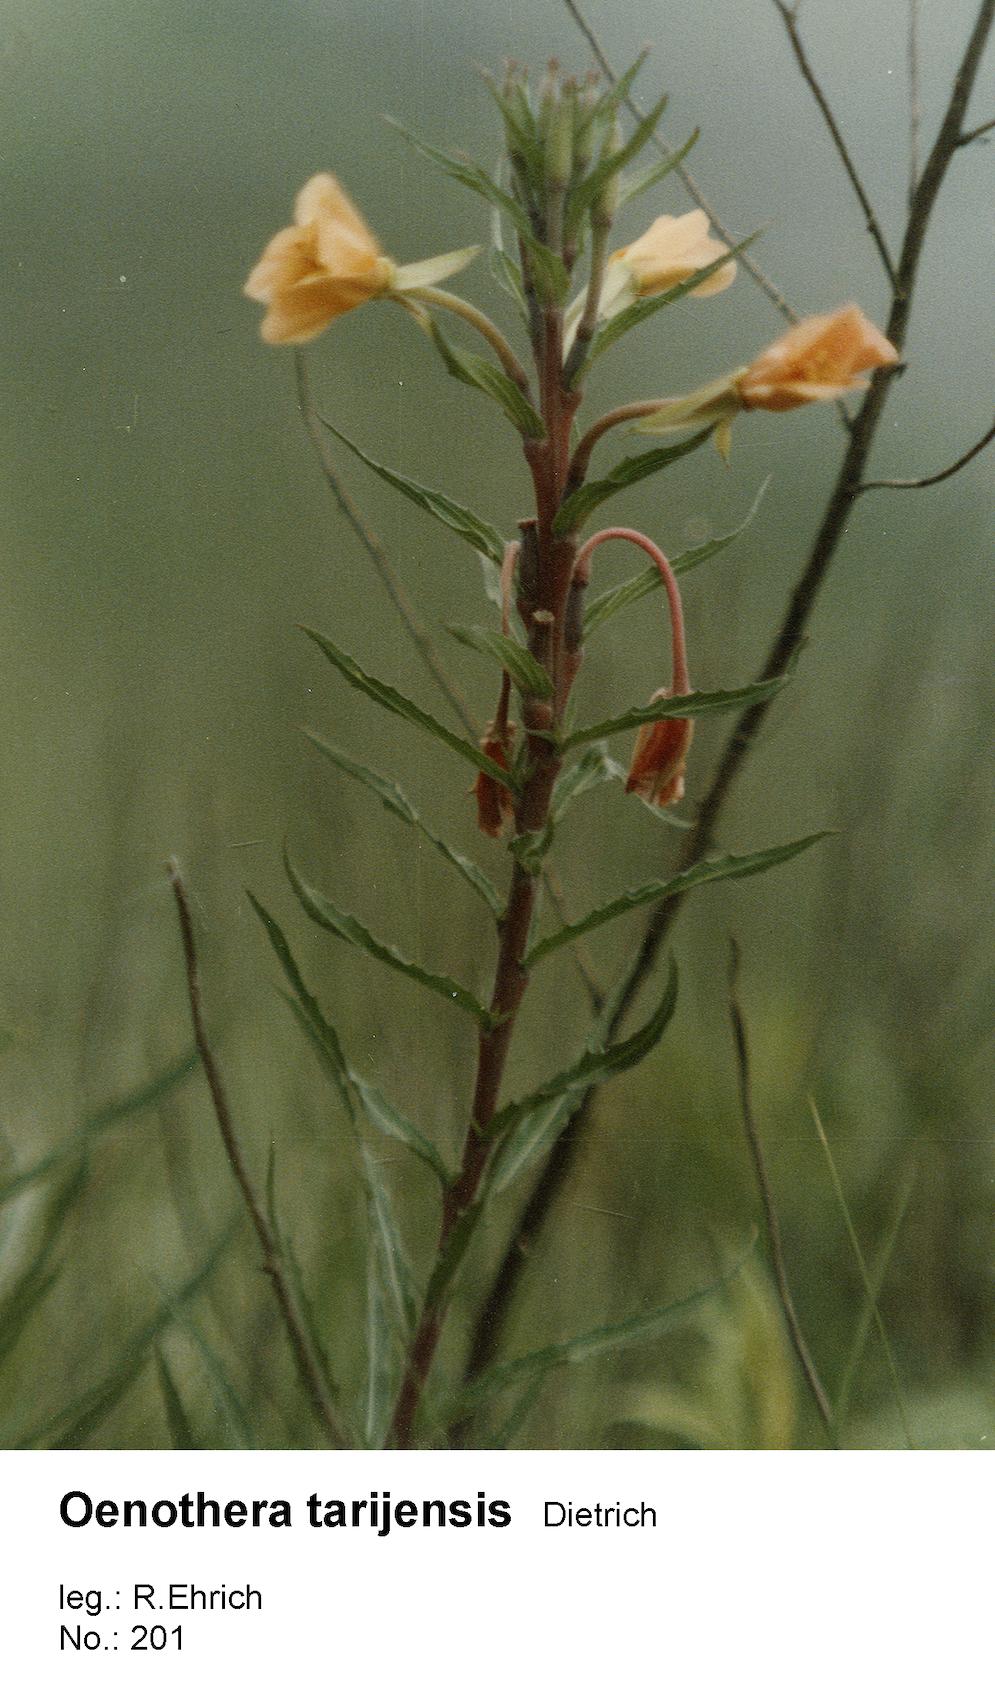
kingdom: Plantae
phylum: Tracheophyta
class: Magnoliopsida
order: Myrtales
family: Onagraceae
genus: Oenothera
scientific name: Oenothera tarijensis
